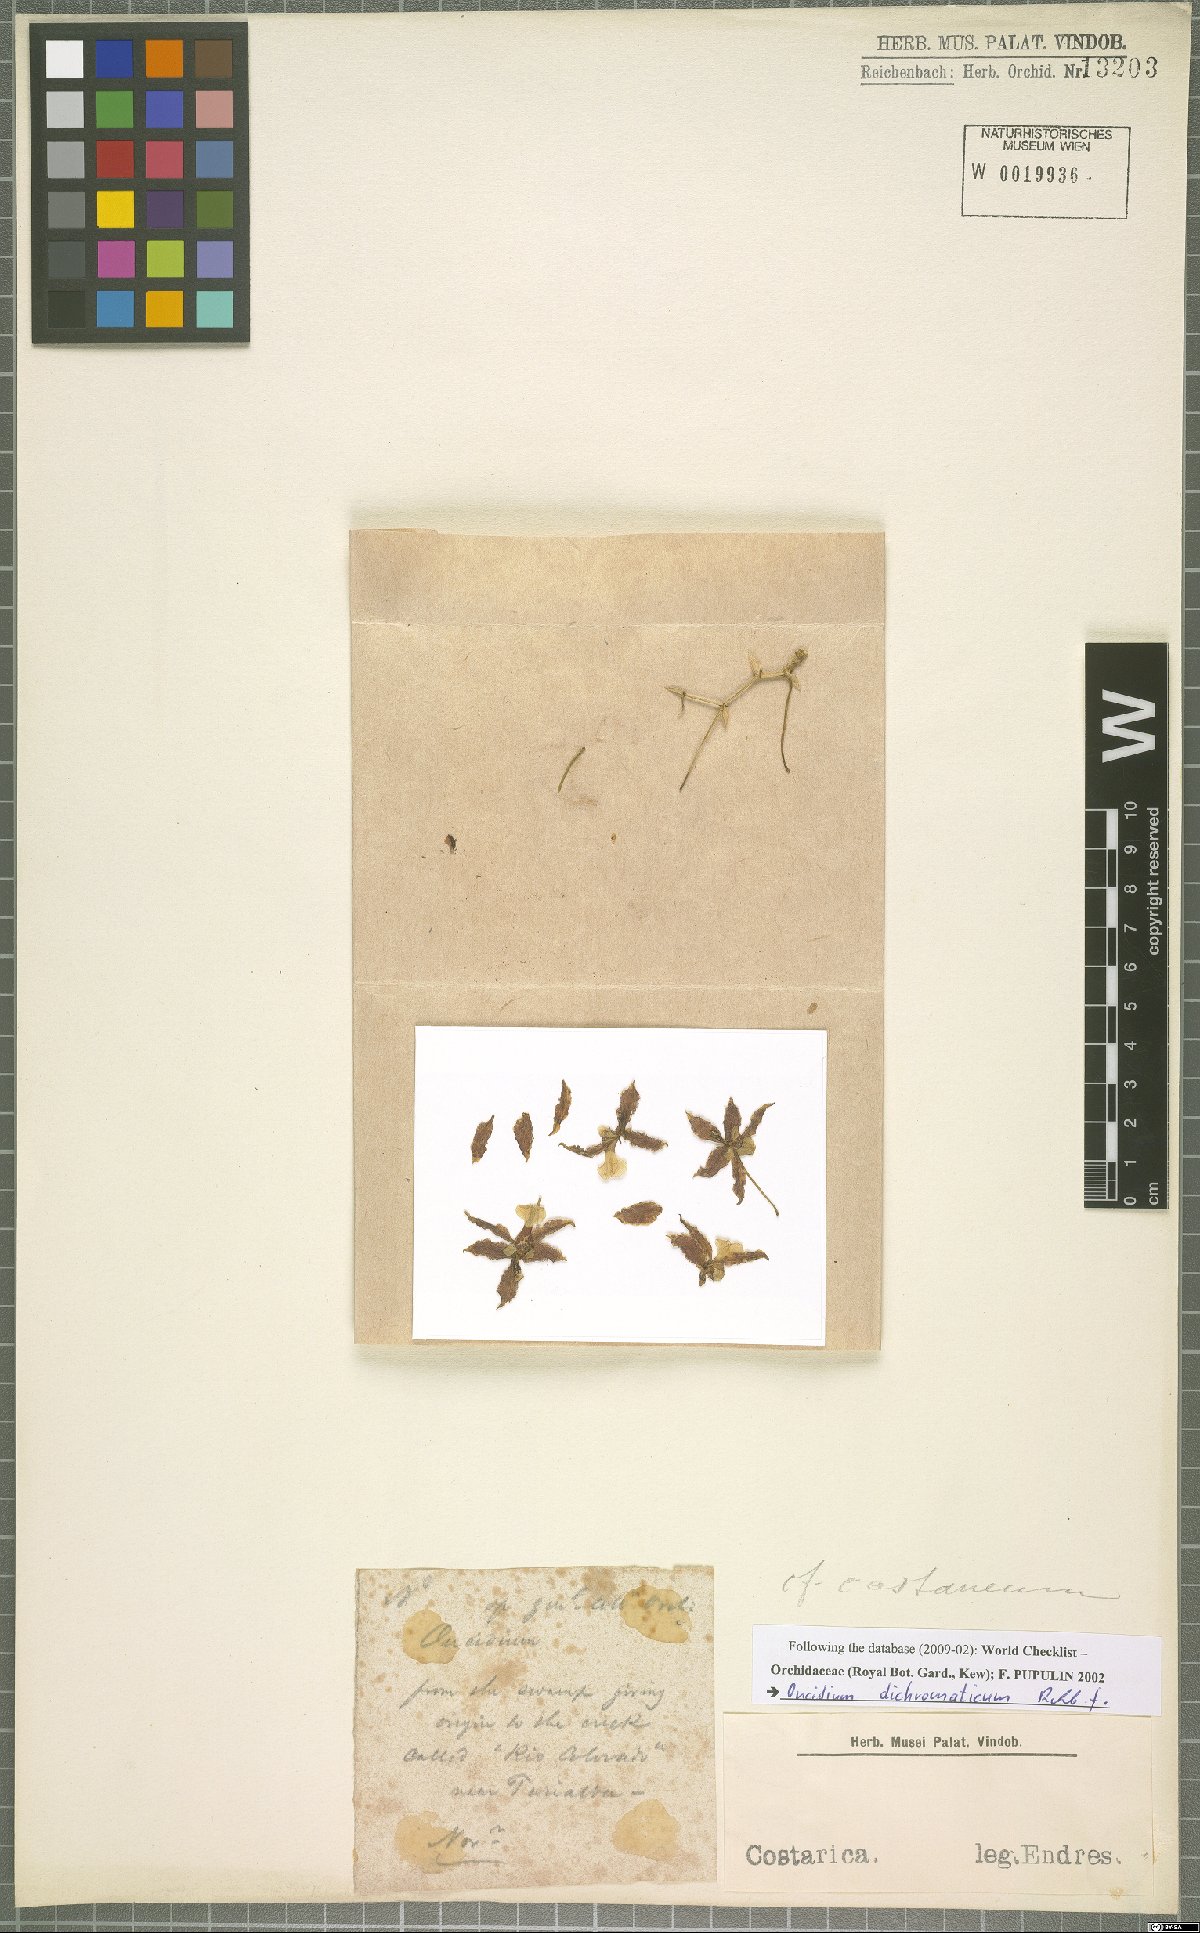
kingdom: Plantae
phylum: Tracheophyta
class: Liliopsida
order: Asparagales
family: Orchidaceae
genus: Oncidium
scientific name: Oncidium dichromaticum
